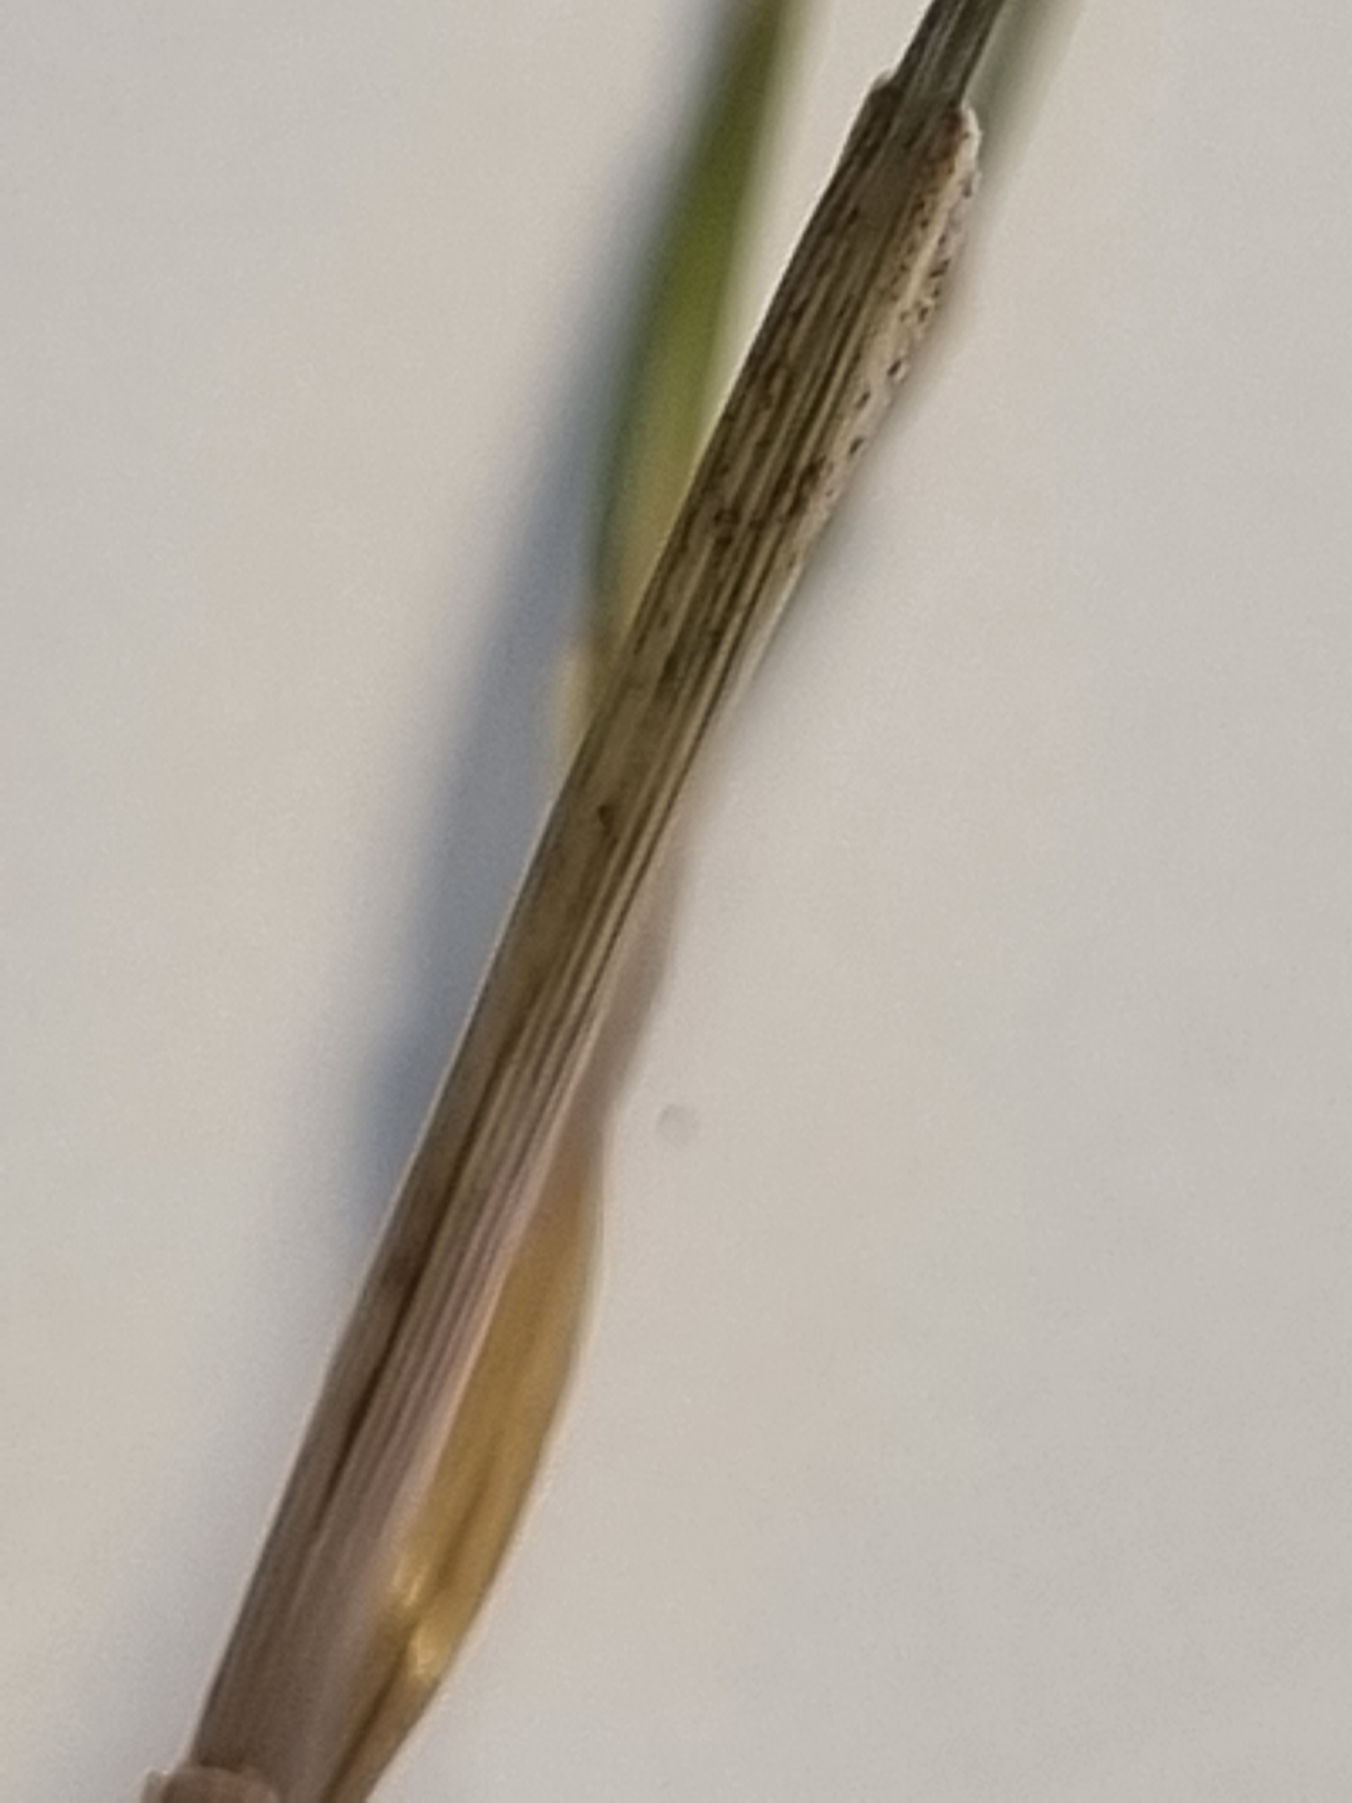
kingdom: Plantae
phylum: Tracheophyta
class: Liliopsida
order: Poales
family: Juncaceae
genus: Juncus
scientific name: Juncus gerardi
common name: Harril
